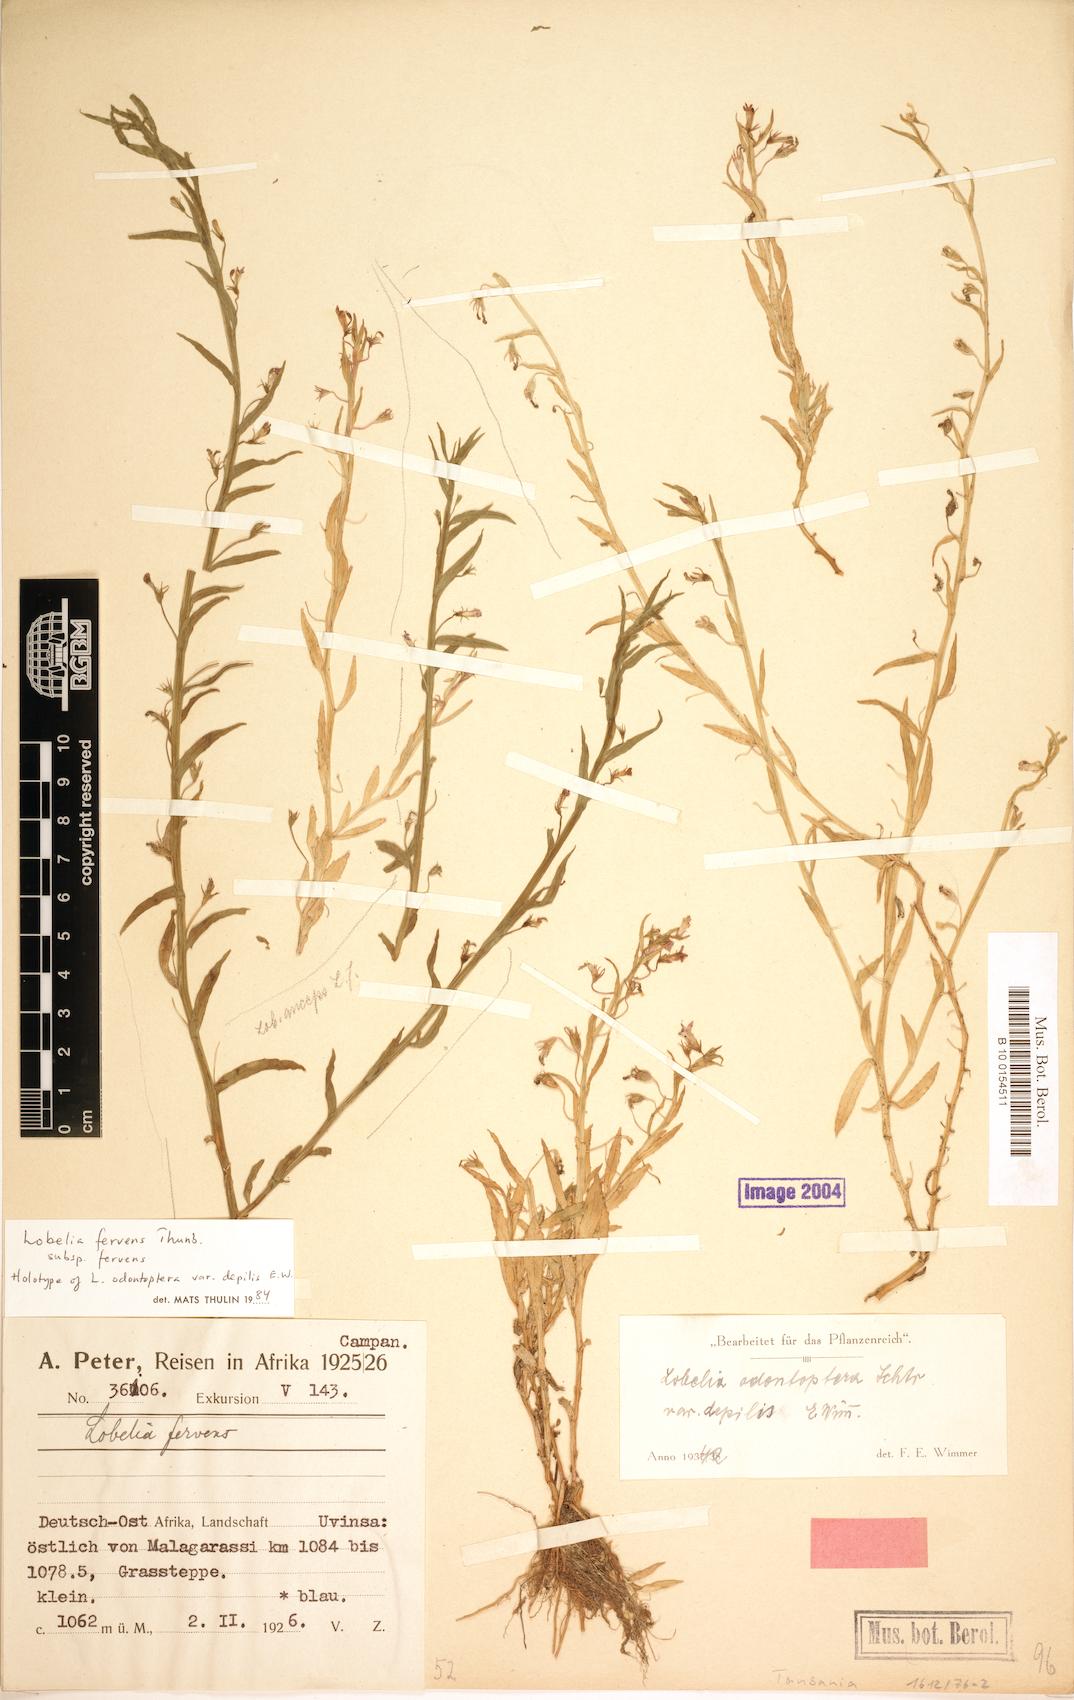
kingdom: Plantae
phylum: Tracheophyta
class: Magnoliopsida
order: Asterales
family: Campanulaceae
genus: Lobelia
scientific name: Lobelia fervens
